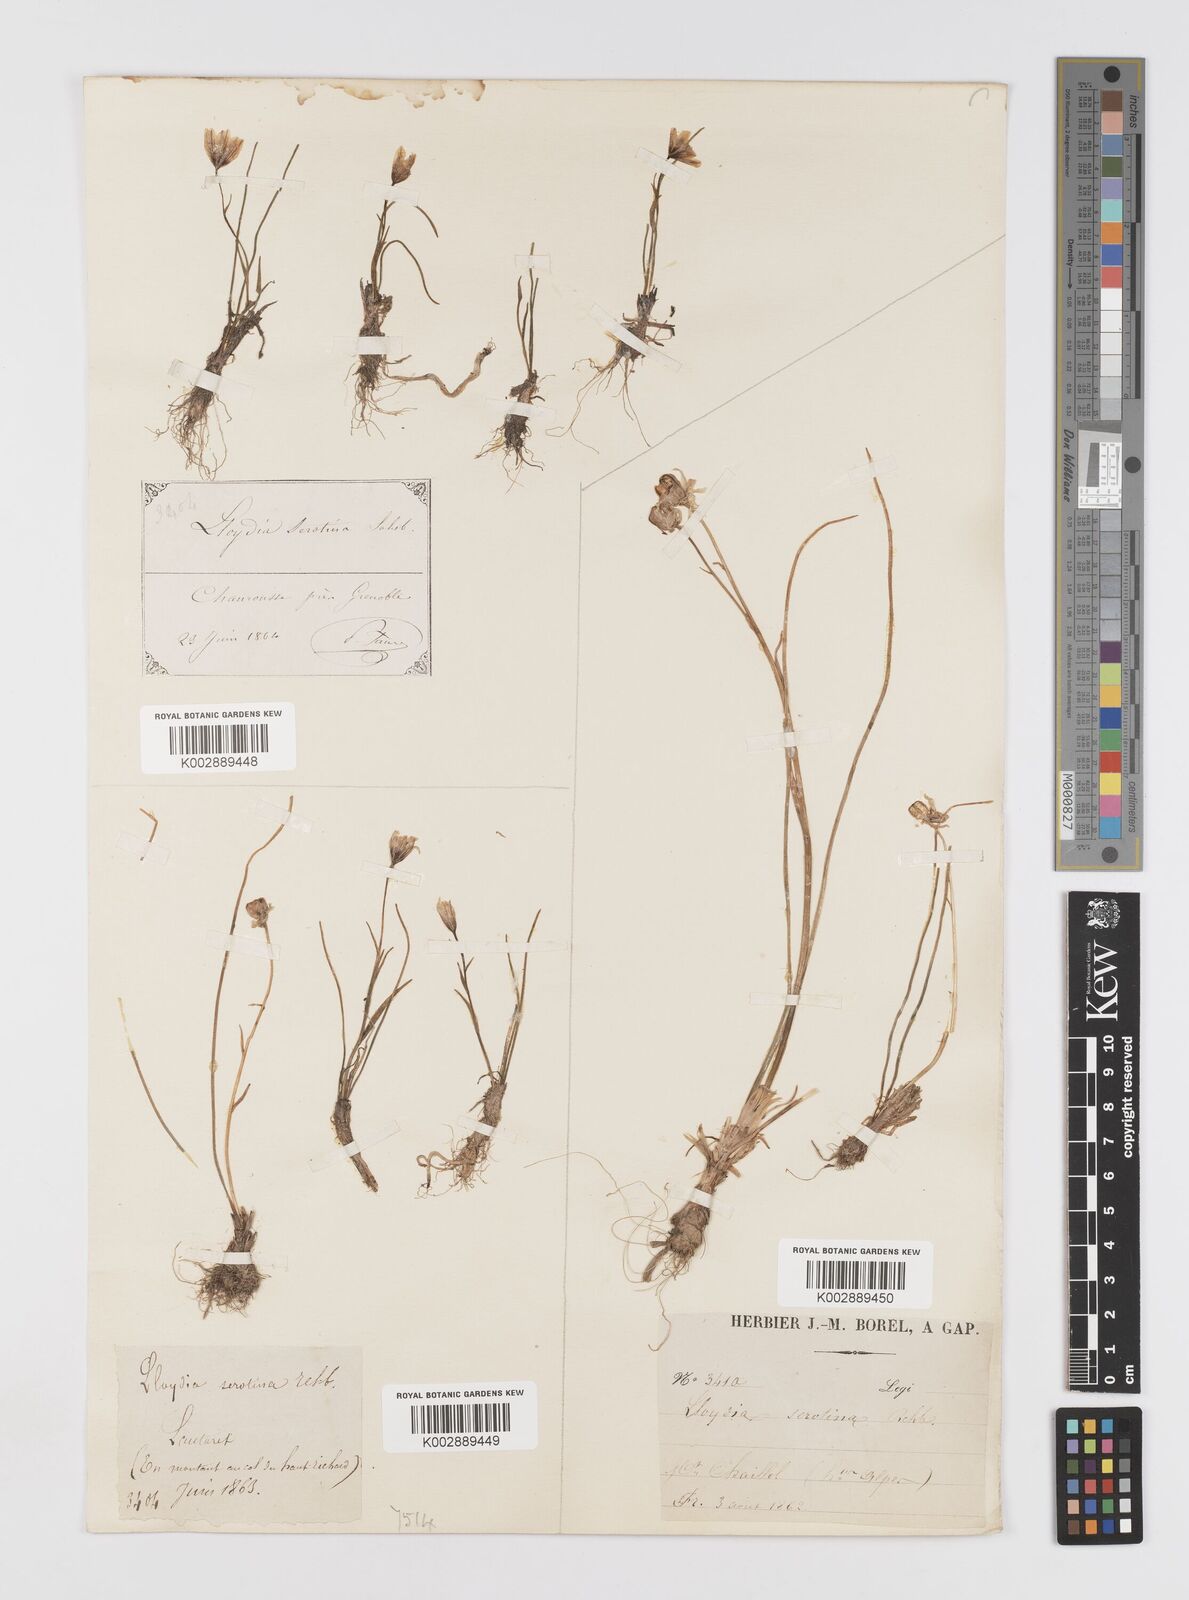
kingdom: Plantae
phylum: Tracheophyta
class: Liliopsida
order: Liliales
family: Liliaceae
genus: Gagea
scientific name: Gagea
